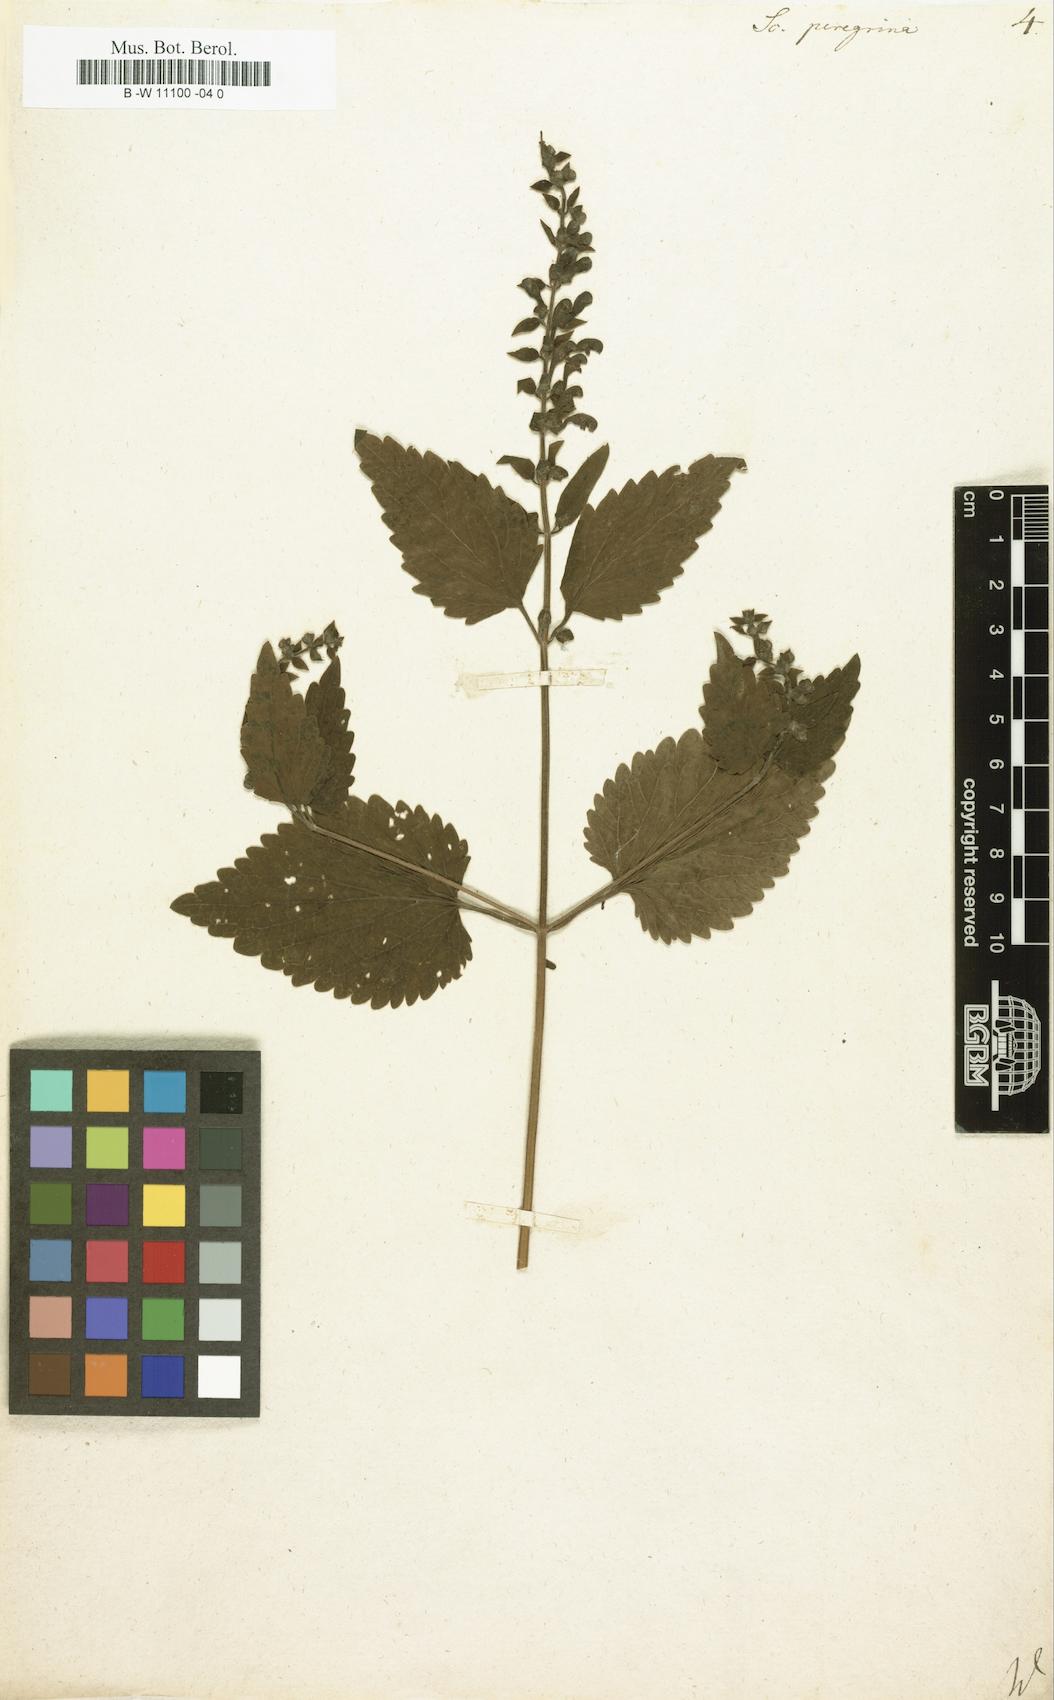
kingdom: Plantae
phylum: Tracheophyta
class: Magnoliopsida
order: Lamiales
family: Lamiaceae
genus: Scutellaria
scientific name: Scutellaria peregrina
